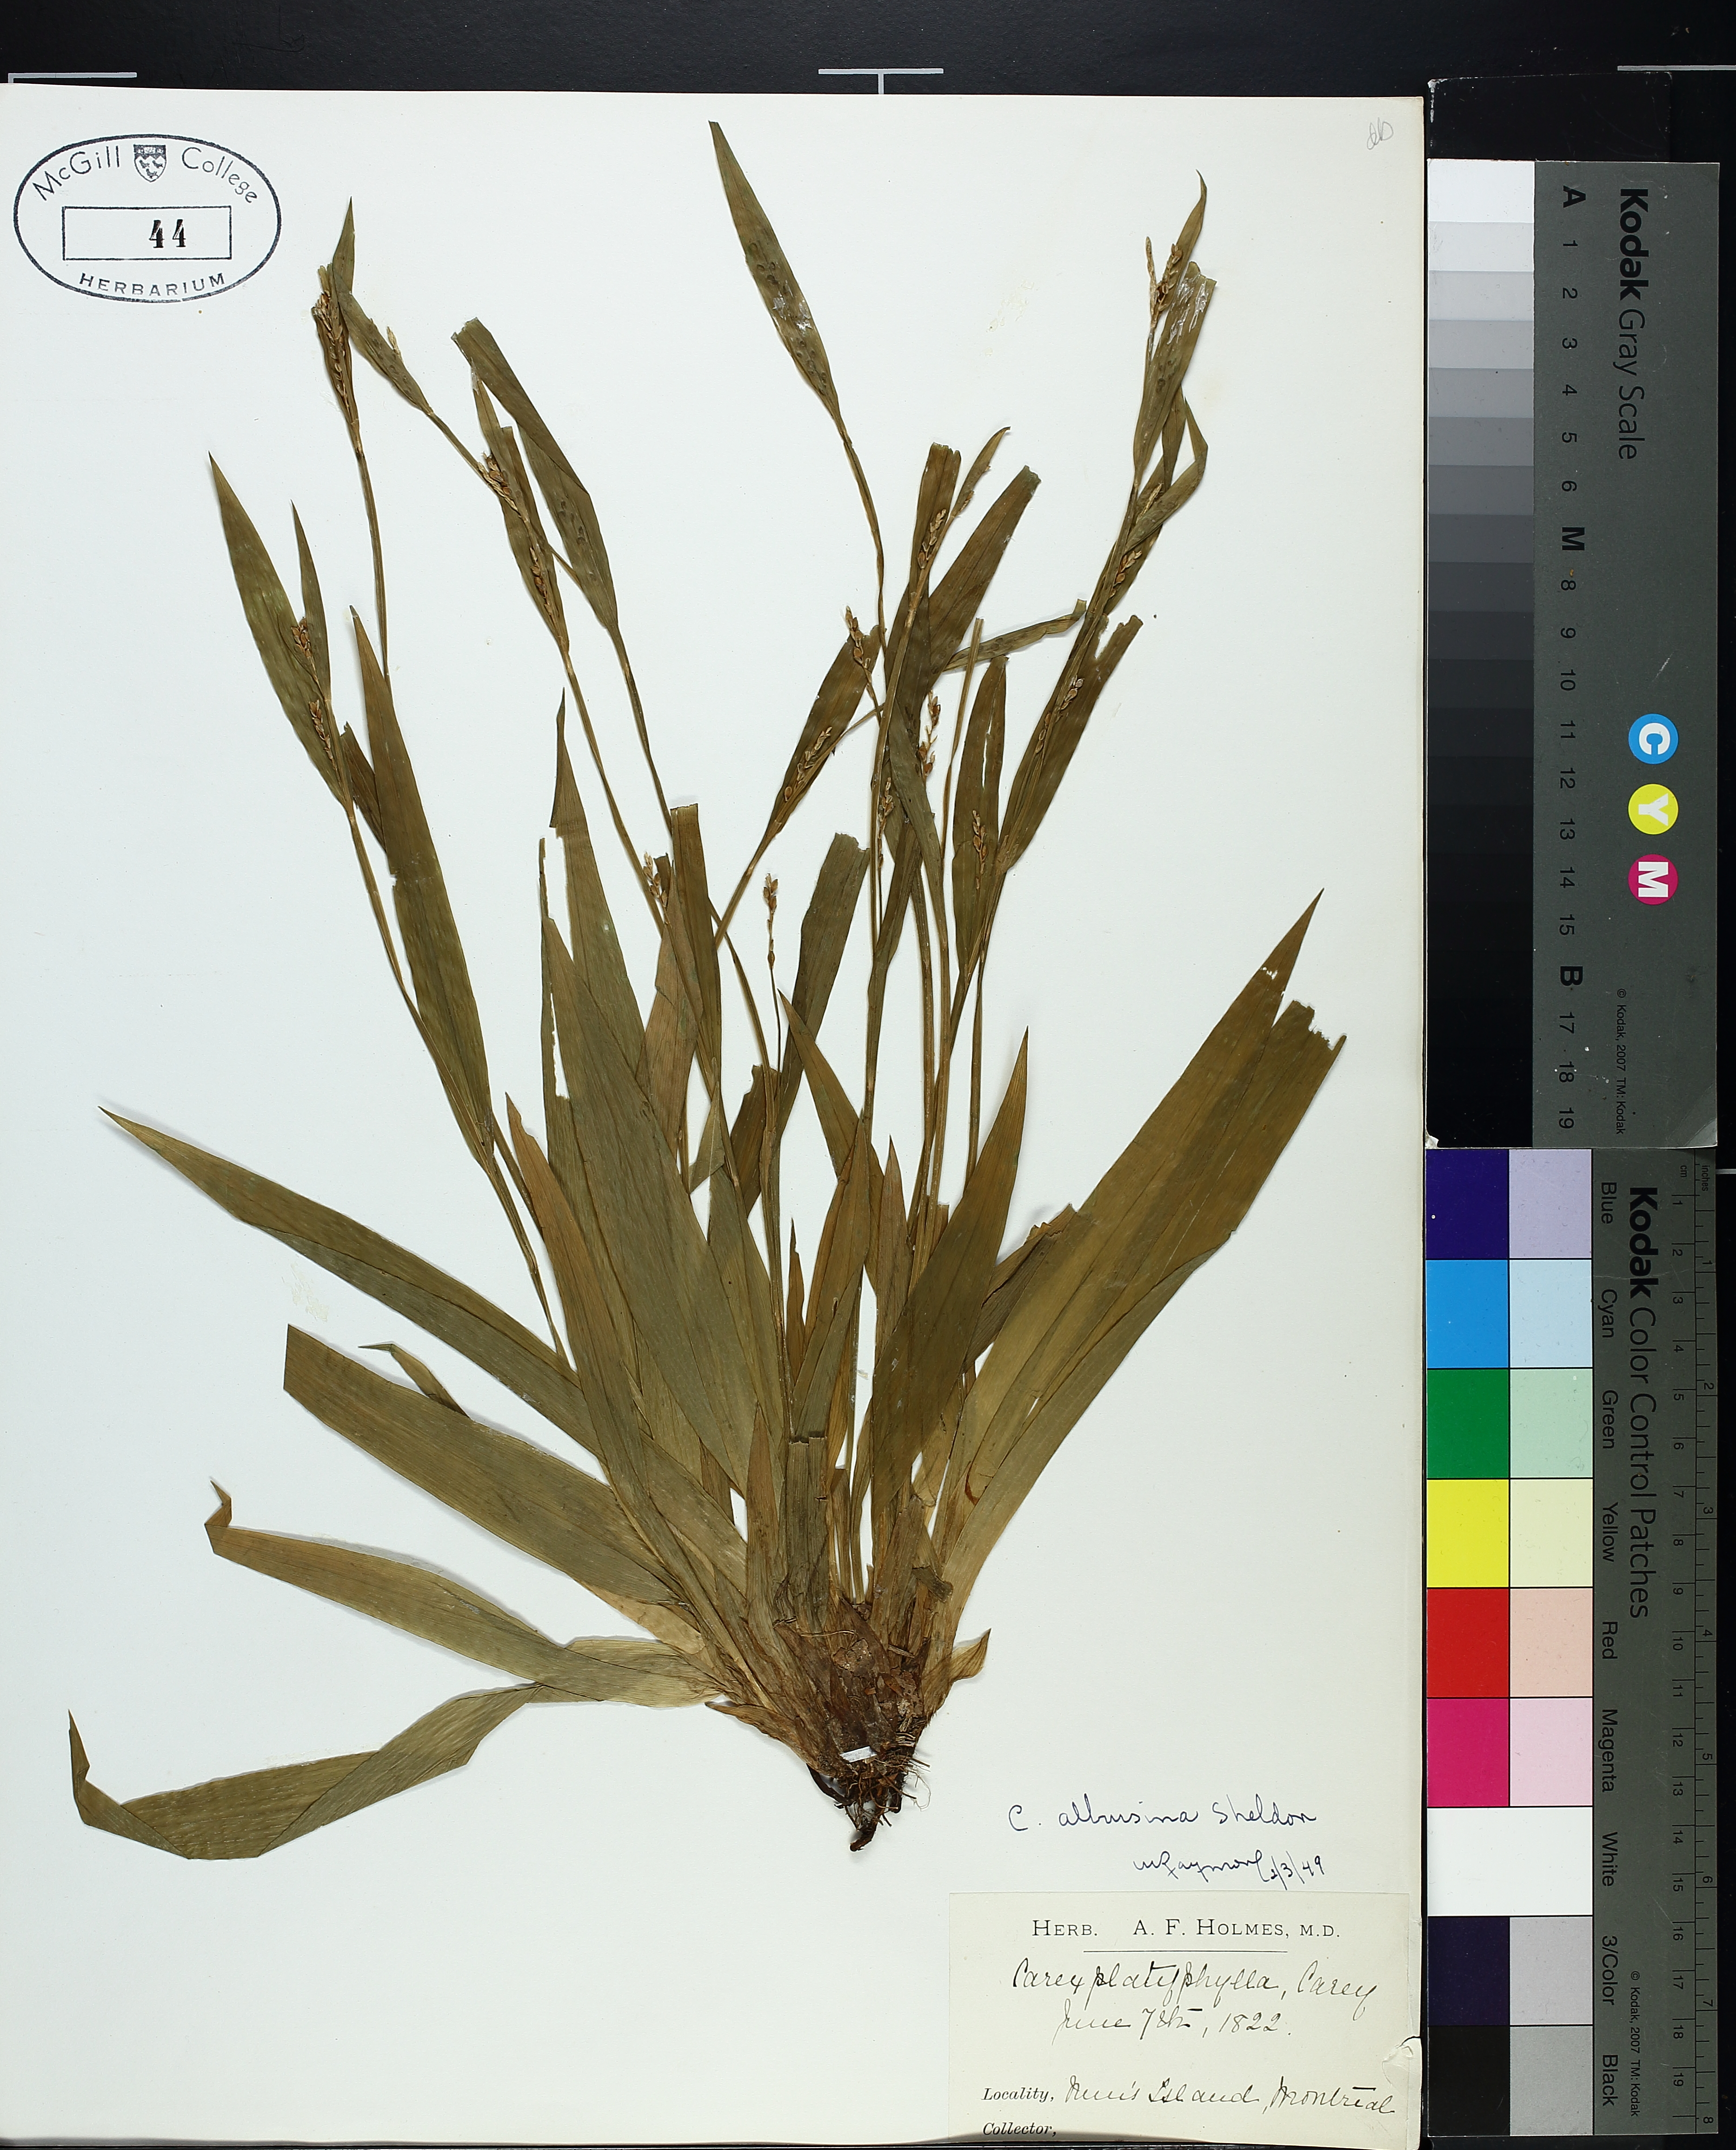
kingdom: Plantae
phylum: Tracheophyta
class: Liliopsida
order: Poales
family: Cyperaceae
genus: Carex
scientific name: Carex albursina
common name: Blunt-scale wood sedge
